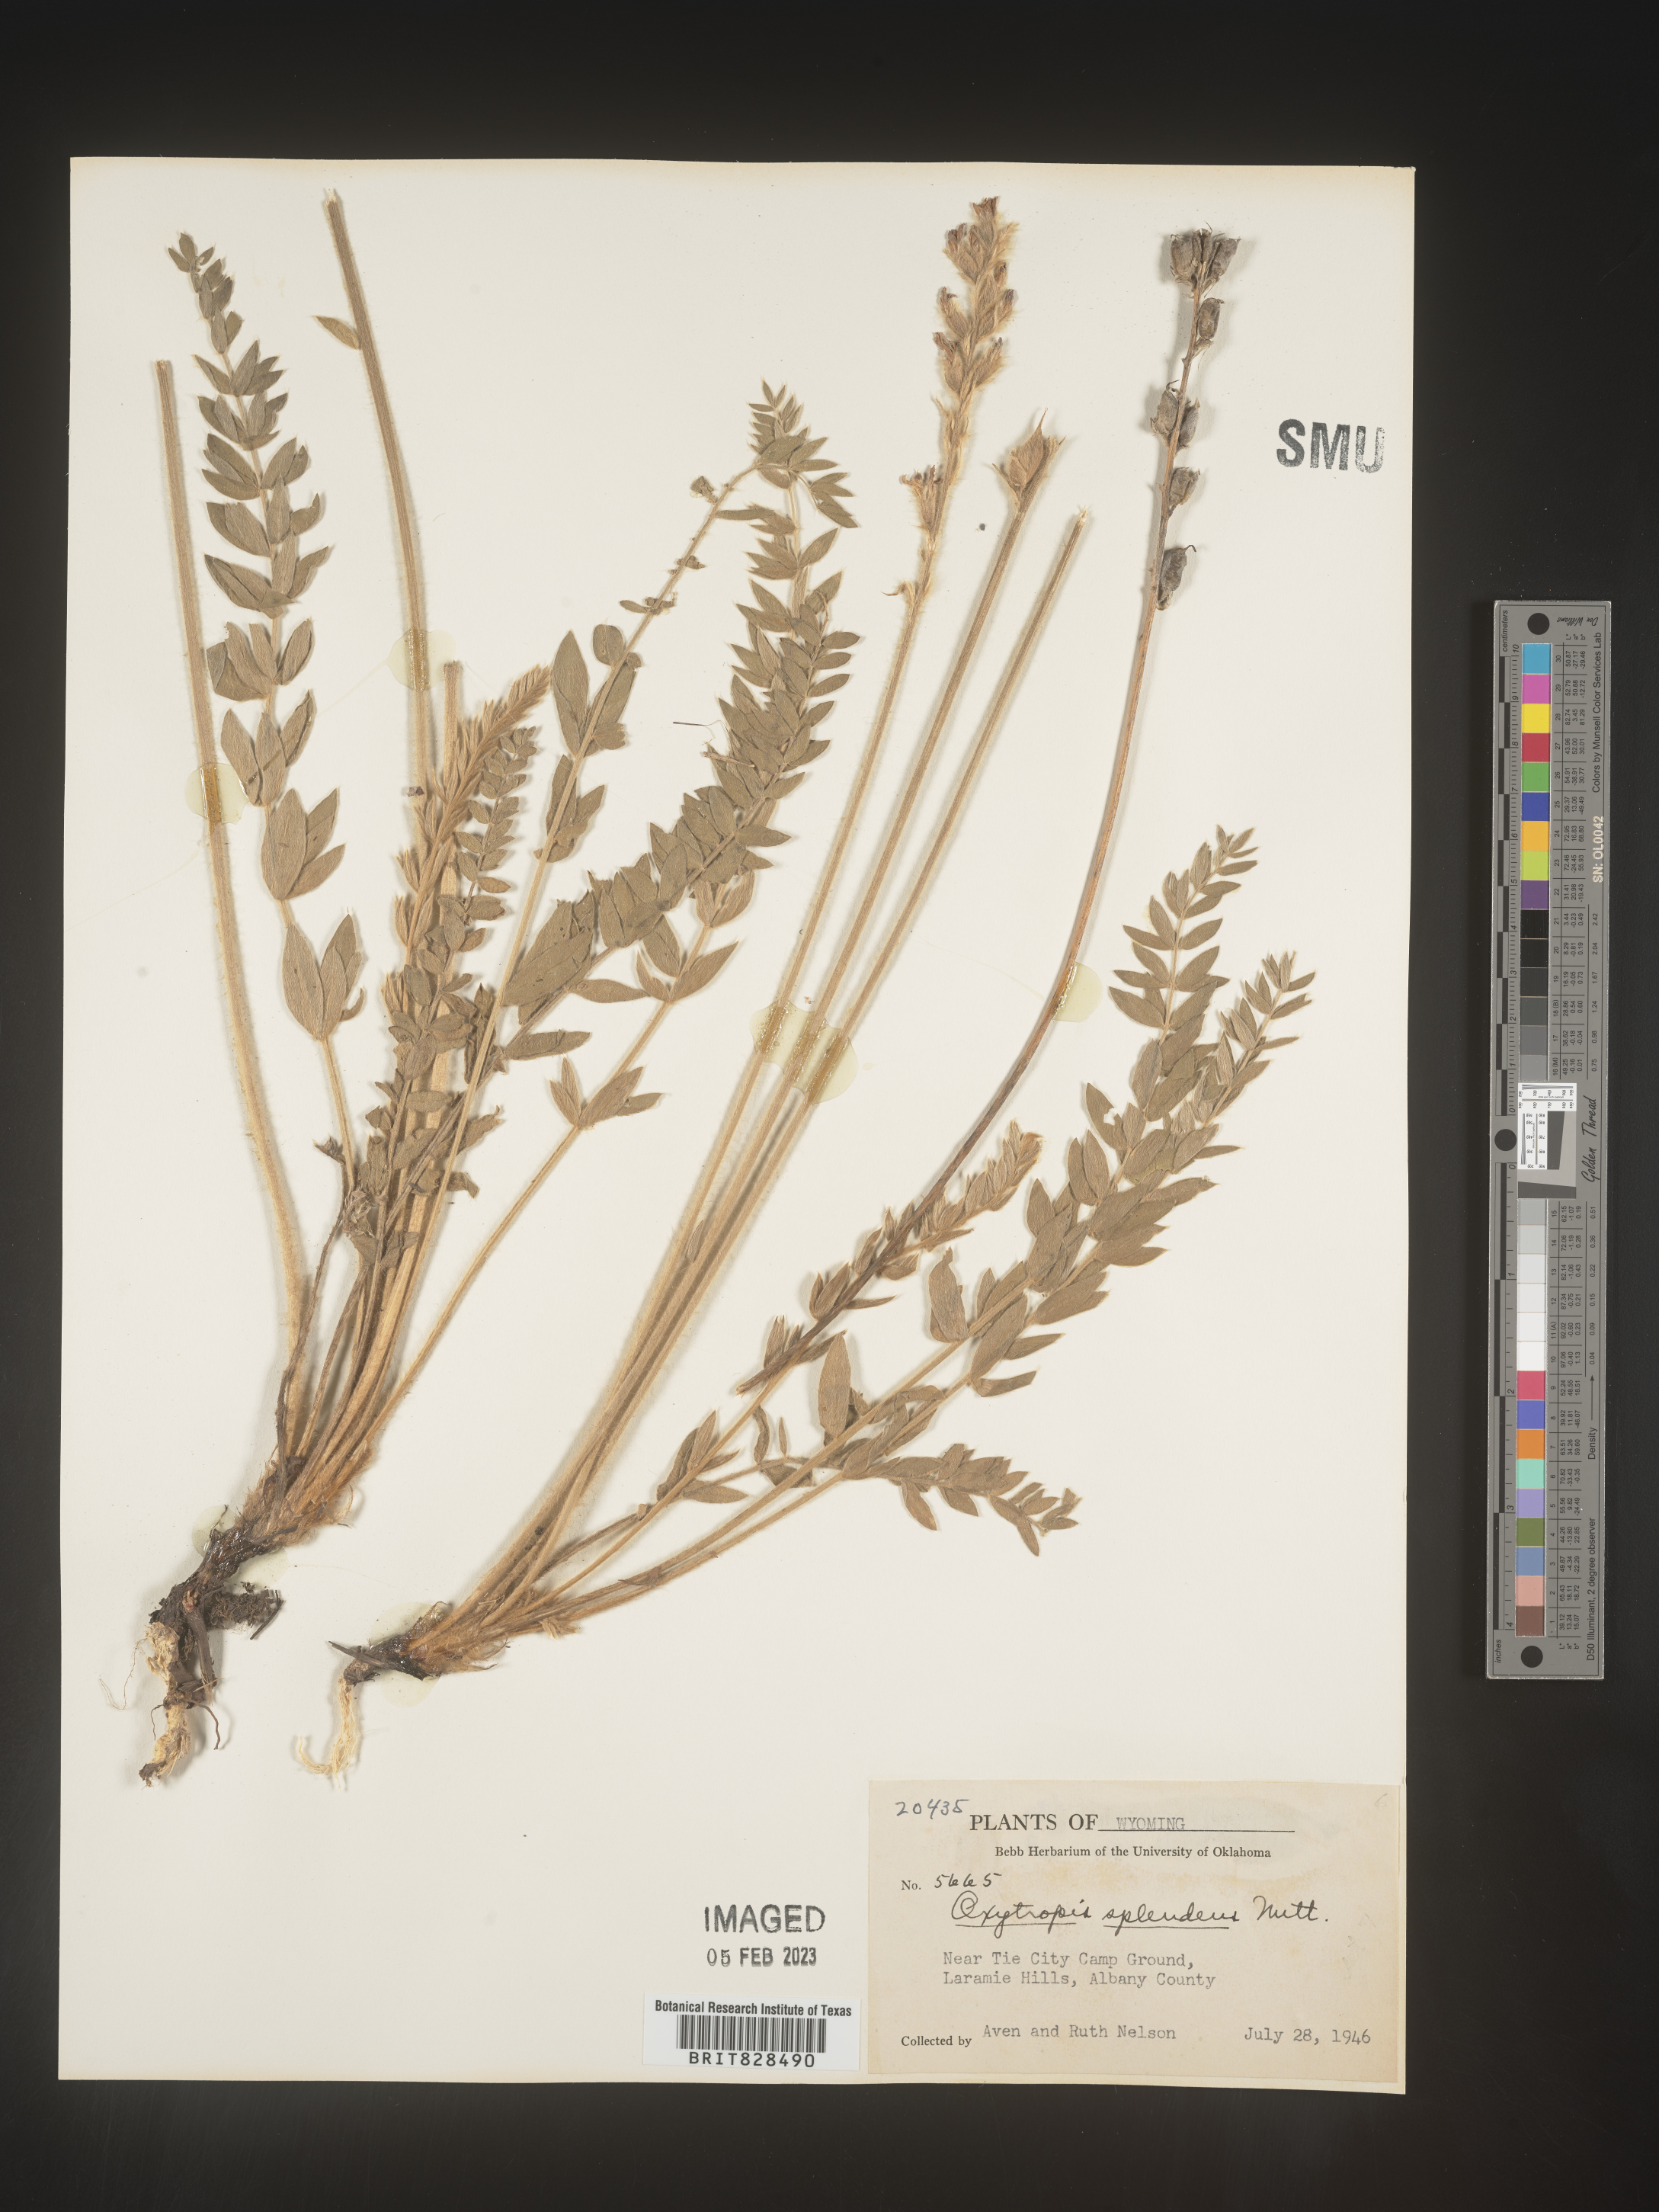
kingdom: Plantae
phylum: Tracheophyta
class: Magnoliopsida
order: Fabales
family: Fabaceae
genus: Oxytropis
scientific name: Oxytropis splendens
